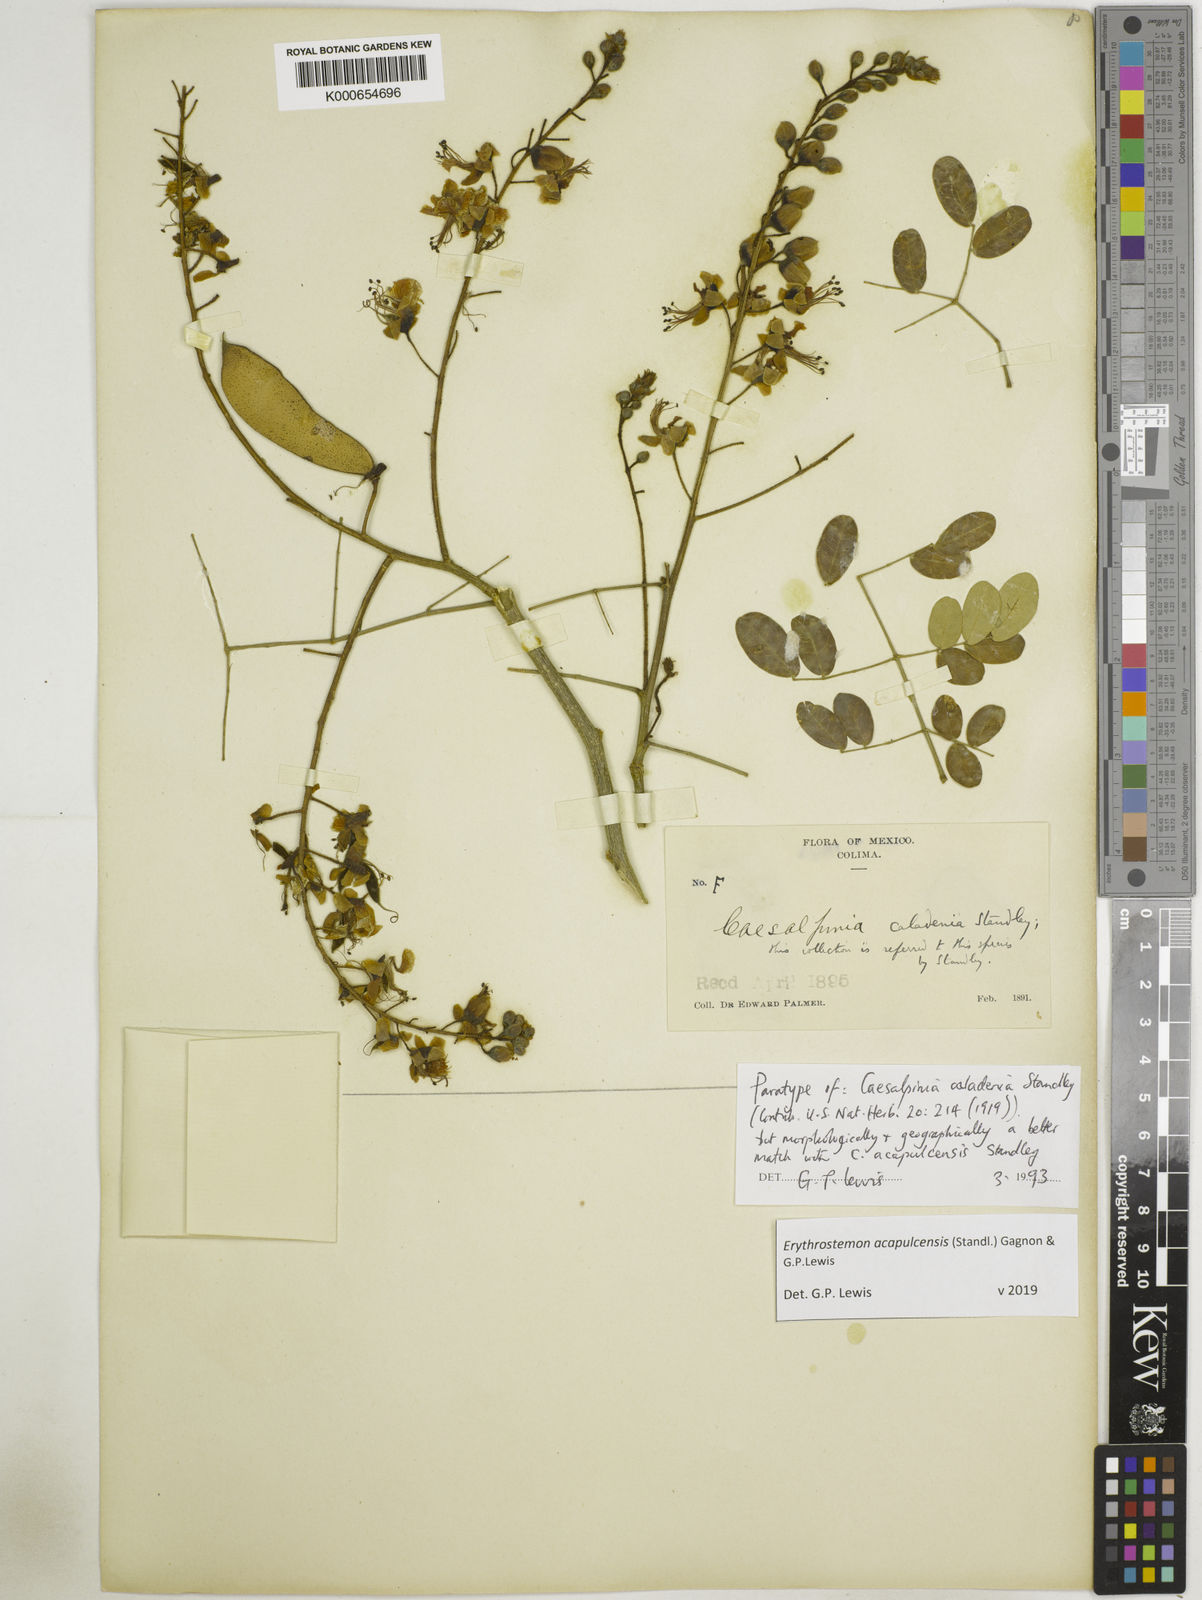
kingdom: Plantae
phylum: Tracheophyta
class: Magnoliopsida
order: Fabales
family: Fabaceae
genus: Erythrostemon
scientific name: Erythrostemon acapulcensis
